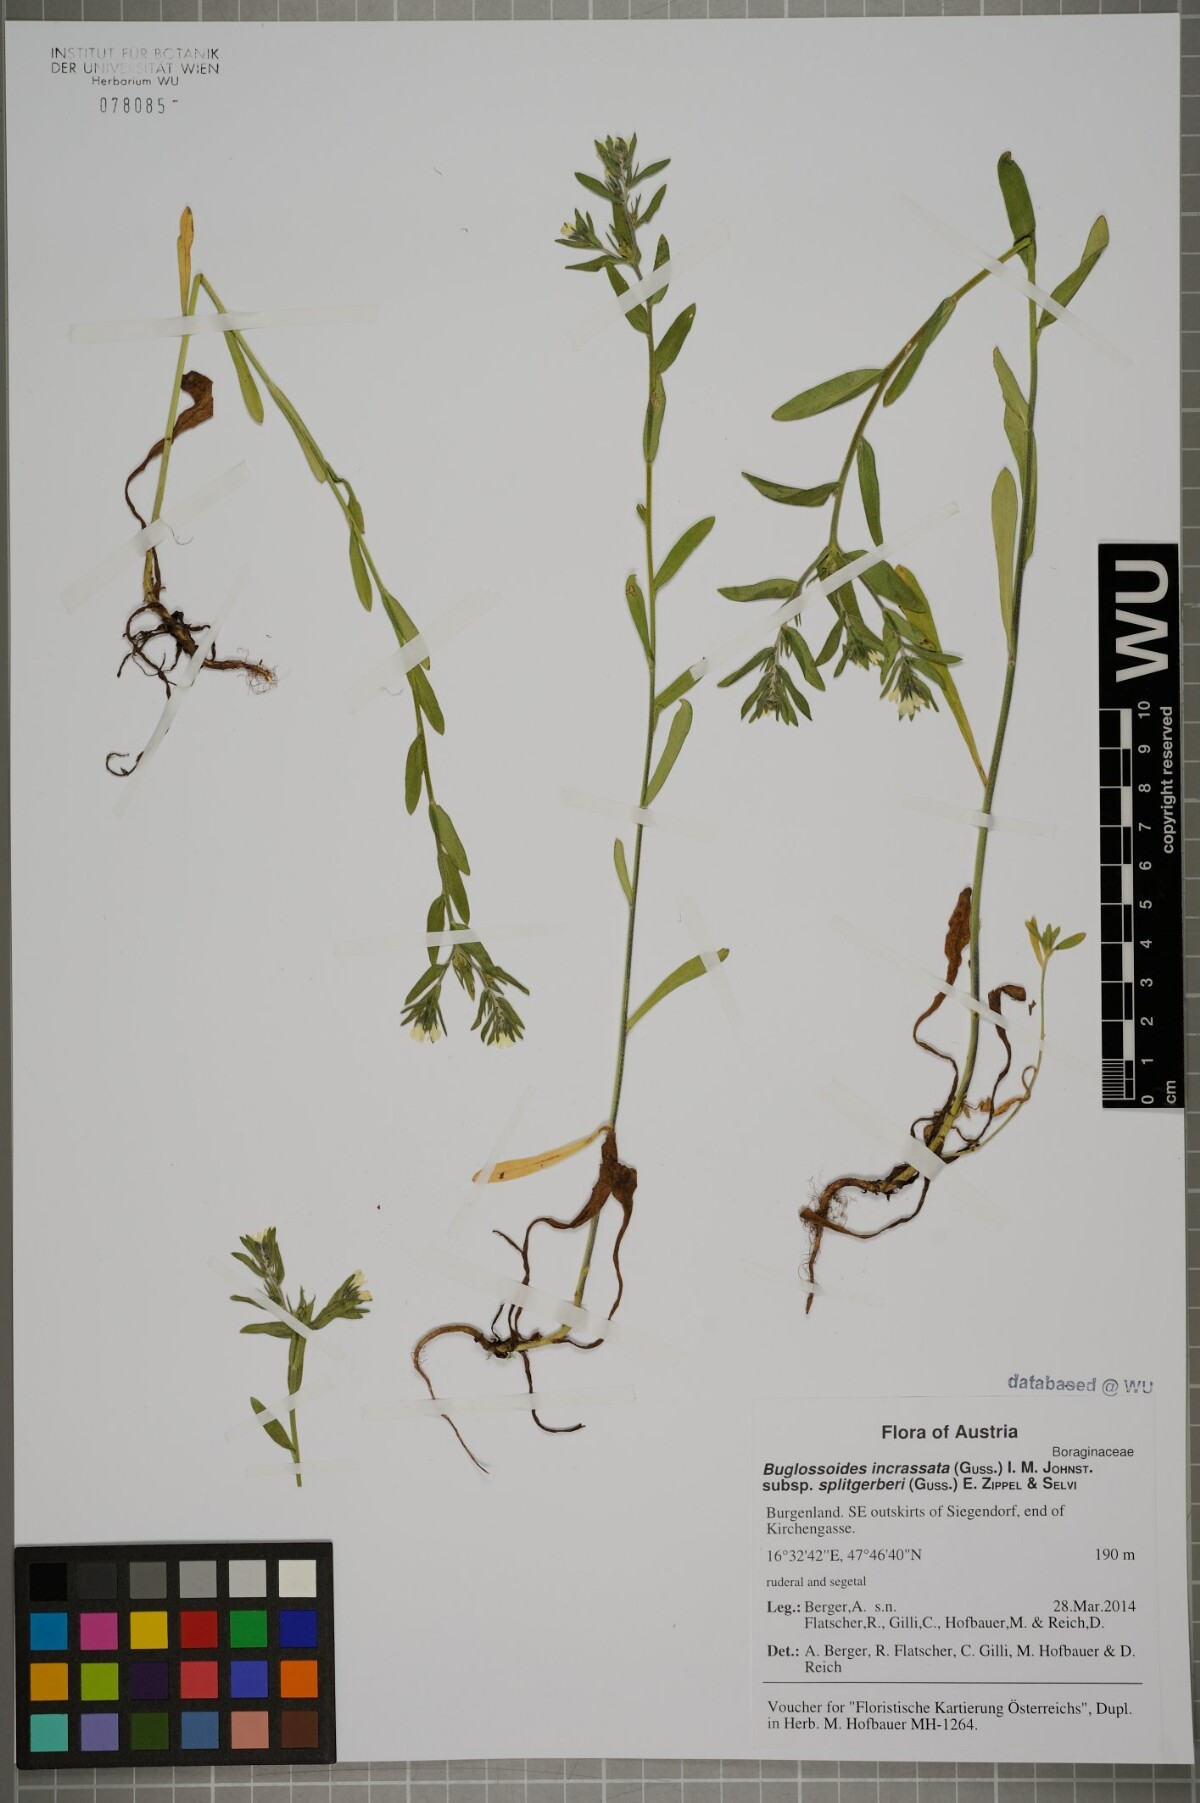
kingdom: Plantae
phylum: Tracheophyta
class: Magnoliopsida
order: Boraginales
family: Boraginaceae
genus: Buglossoides
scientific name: Buglossoides incrassata
